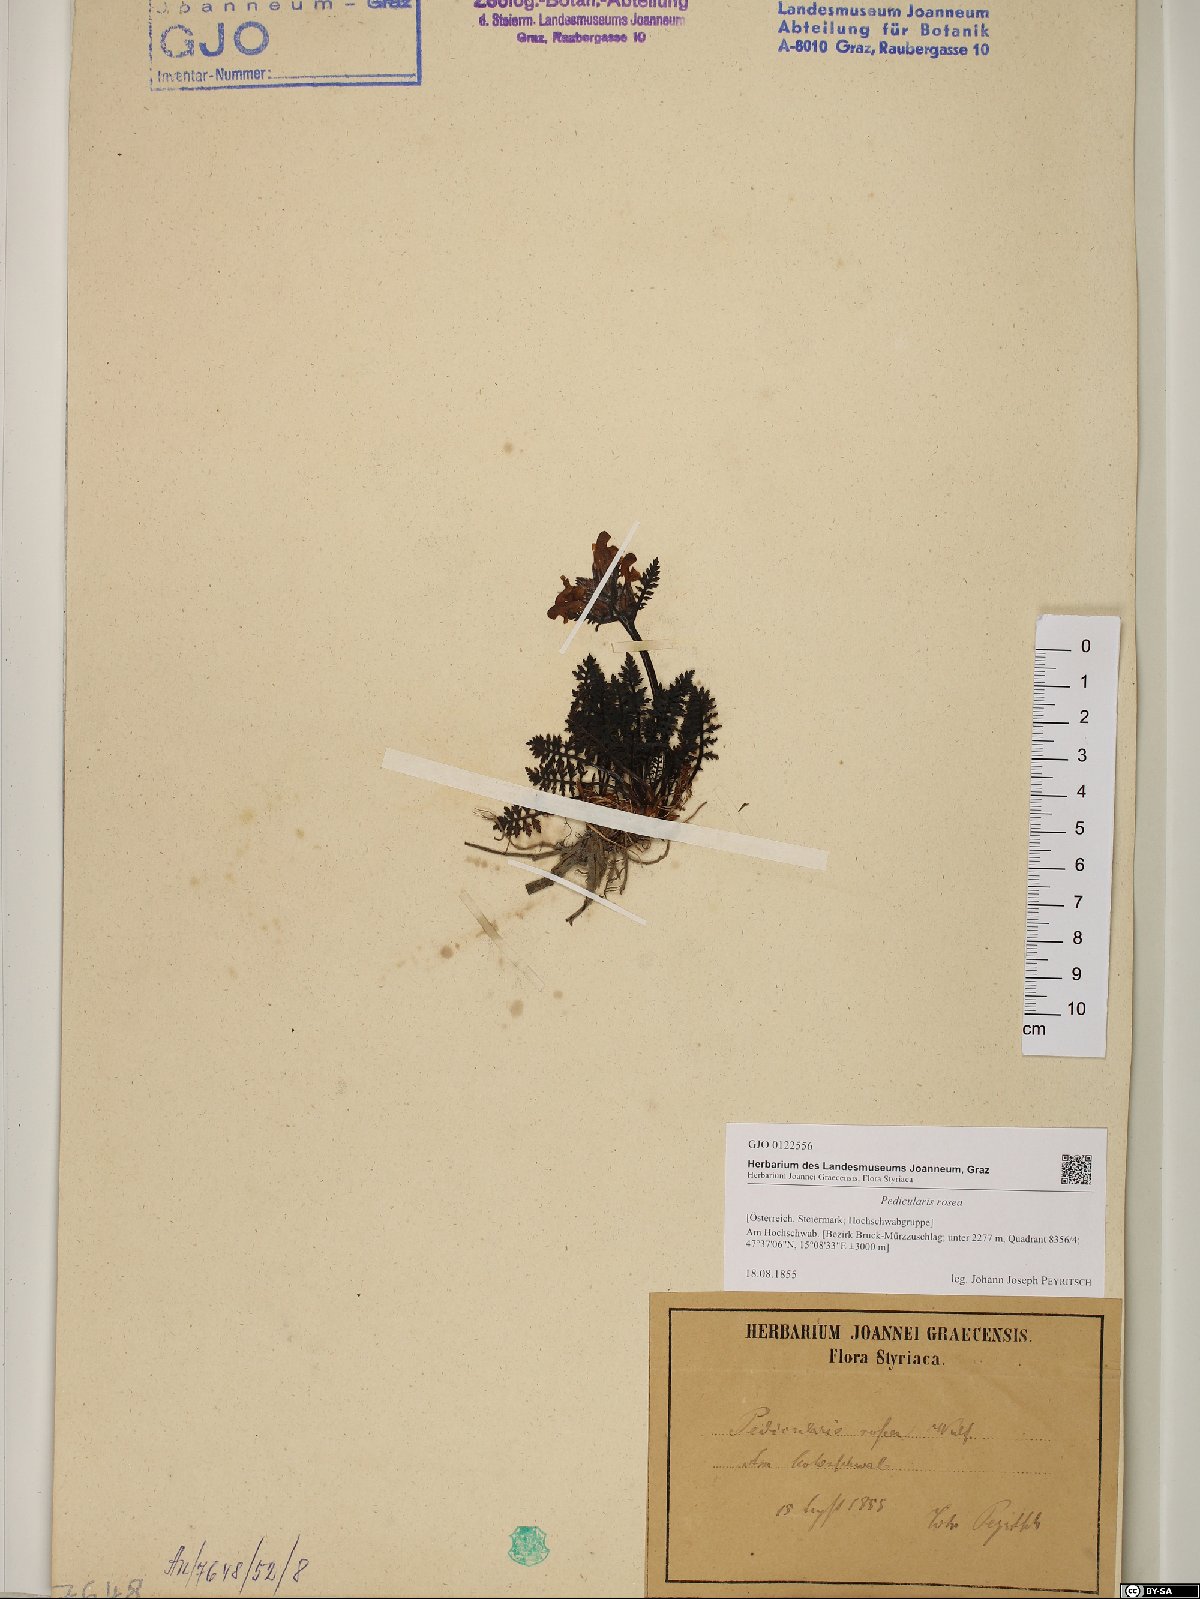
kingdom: Plantae
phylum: Tracheophyta
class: Magnoliopsida
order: Lamiales
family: Orobanchaceae
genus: Pedicularis
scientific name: Pedicularis rosea
